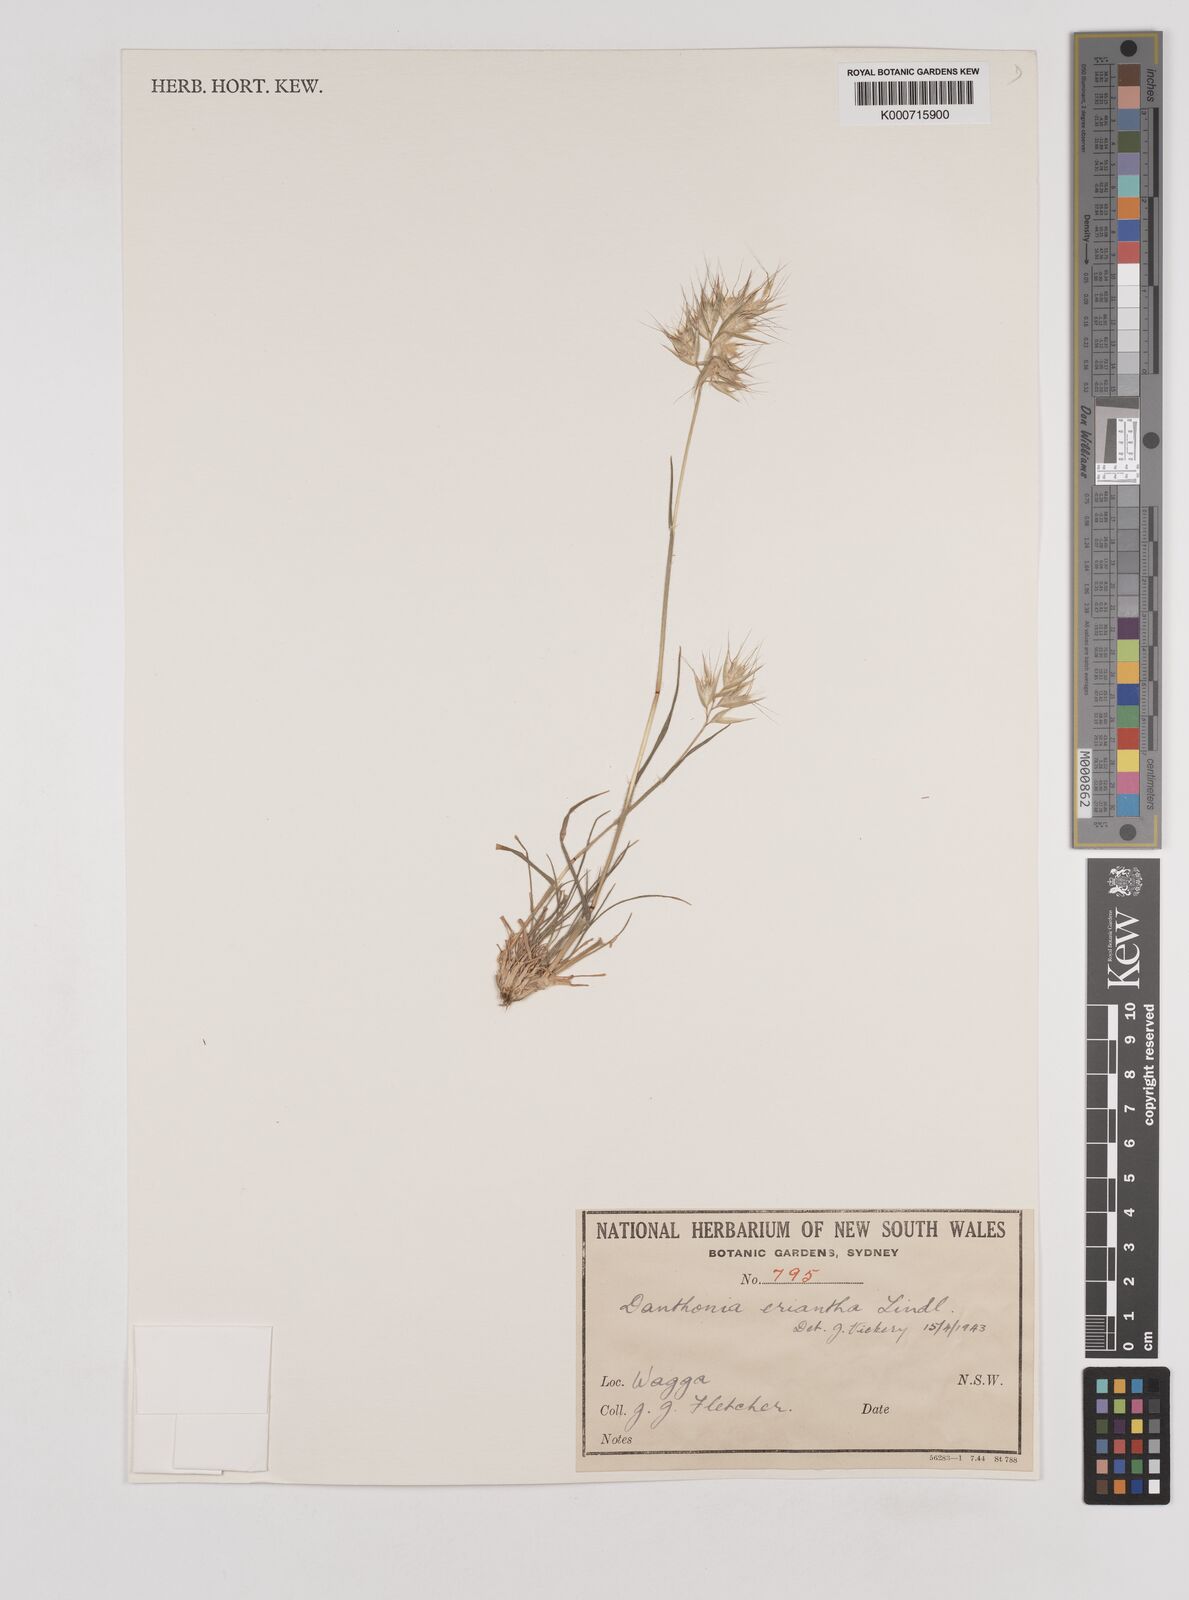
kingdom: Plantae
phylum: Tracheophyta
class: Liliopsida
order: Poales
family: Poaceae
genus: Rytidosperma
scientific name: Rytidosperma erianthum
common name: Hill wallaby grass
